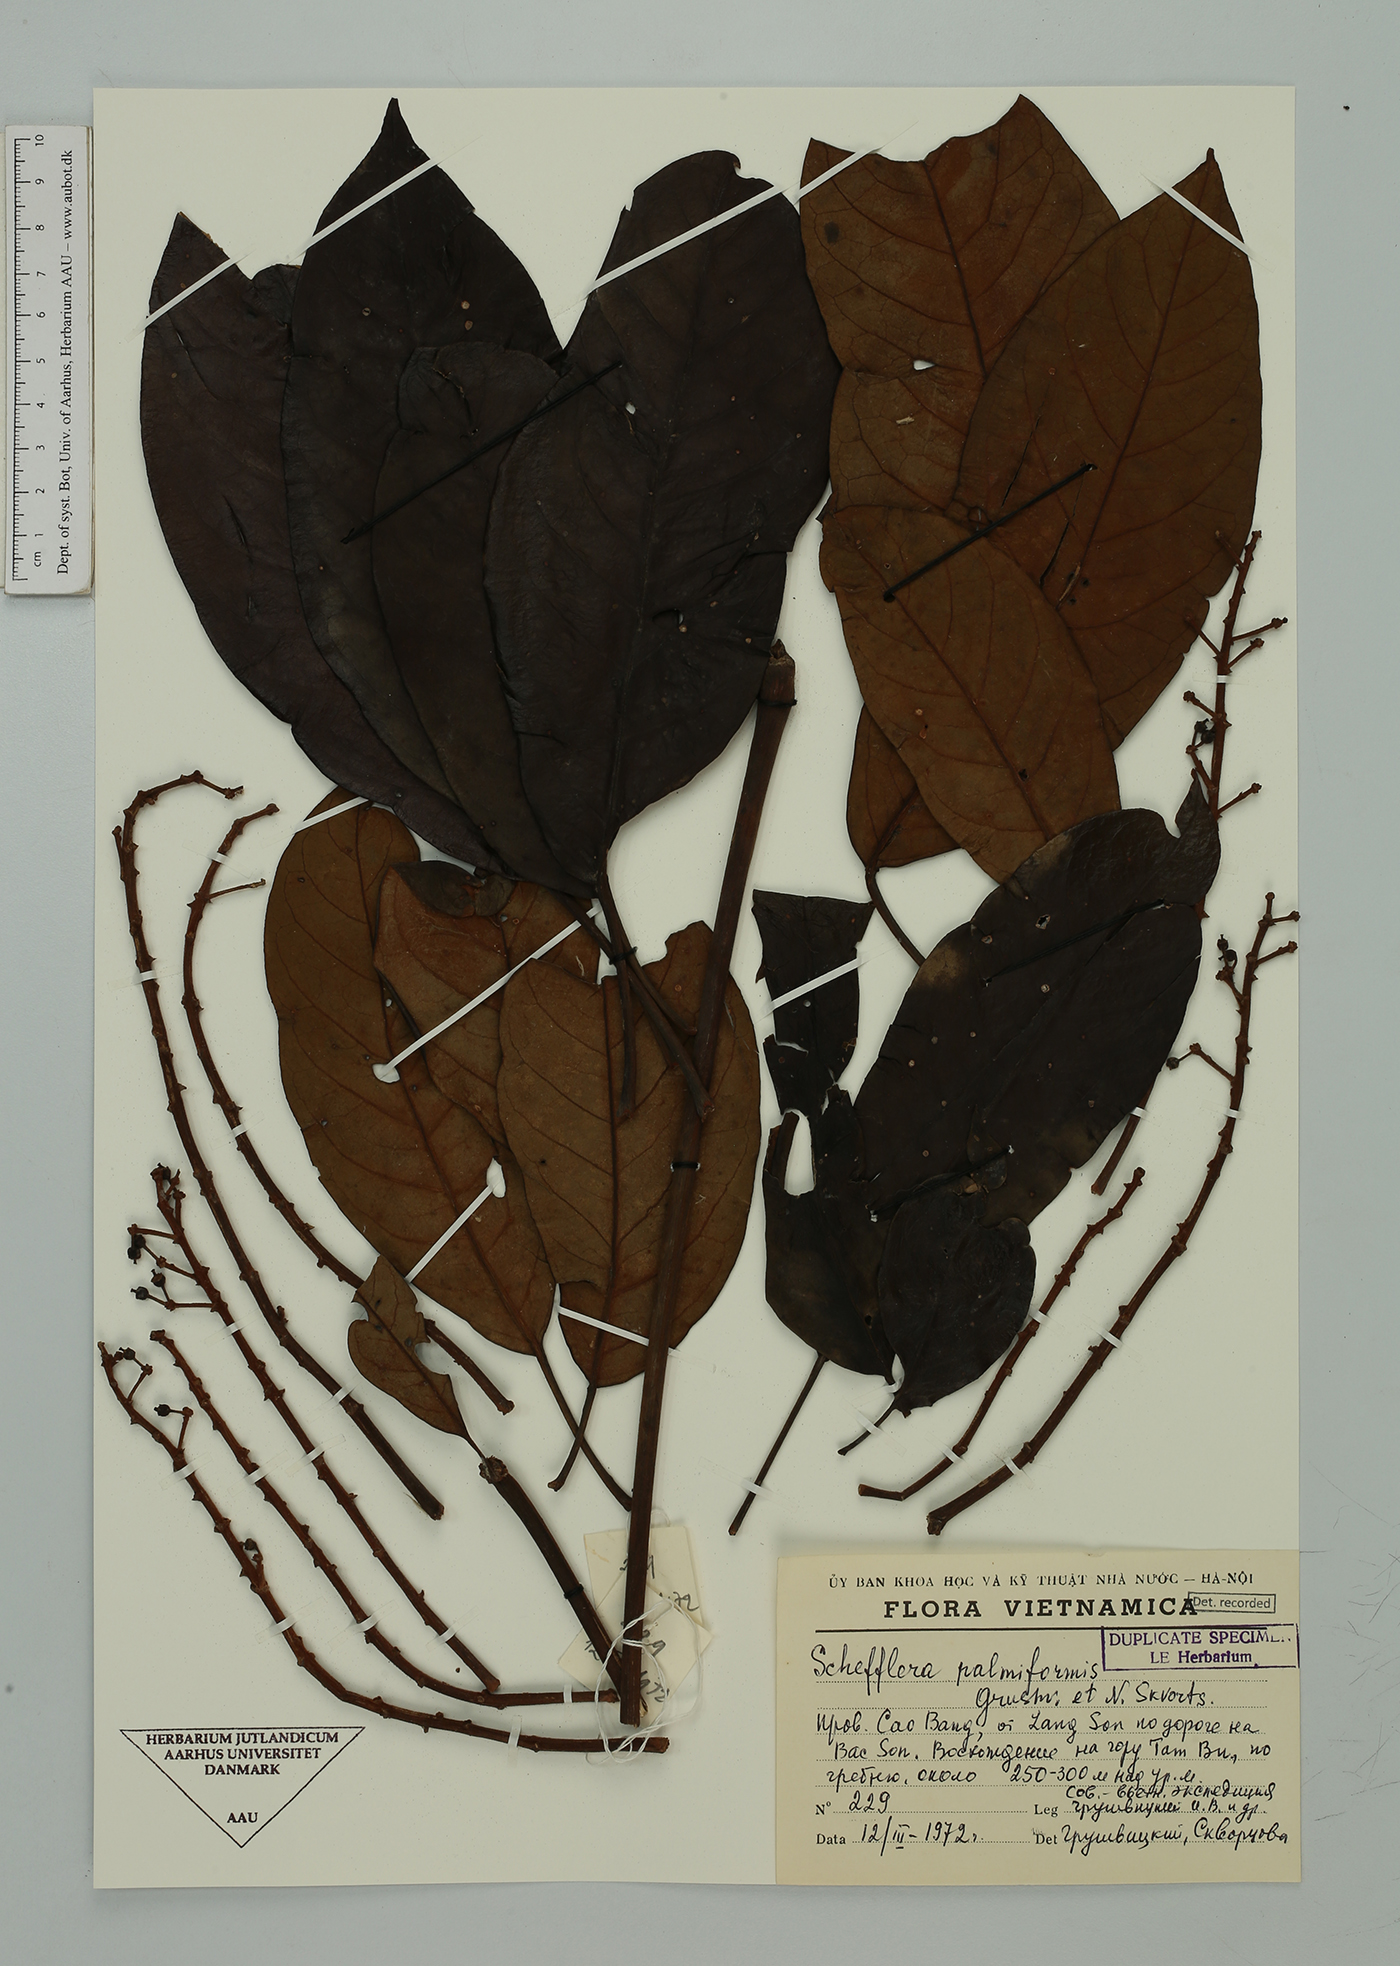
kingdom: Plantae
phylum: Tracheophyta
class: Magnoliopsida
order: Apiales
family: Araliaceae
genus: Heptapleurum
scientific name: Heptapleurum palmiforme
